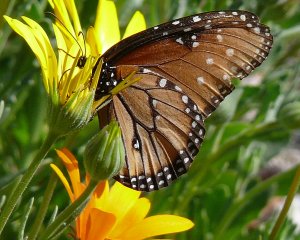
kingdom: Animalia
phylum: Arthropoda
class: Insecta
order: Lepidoptera
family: Nymphalidae
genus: Danaus
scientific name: Danaus gilippus
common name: Queen
